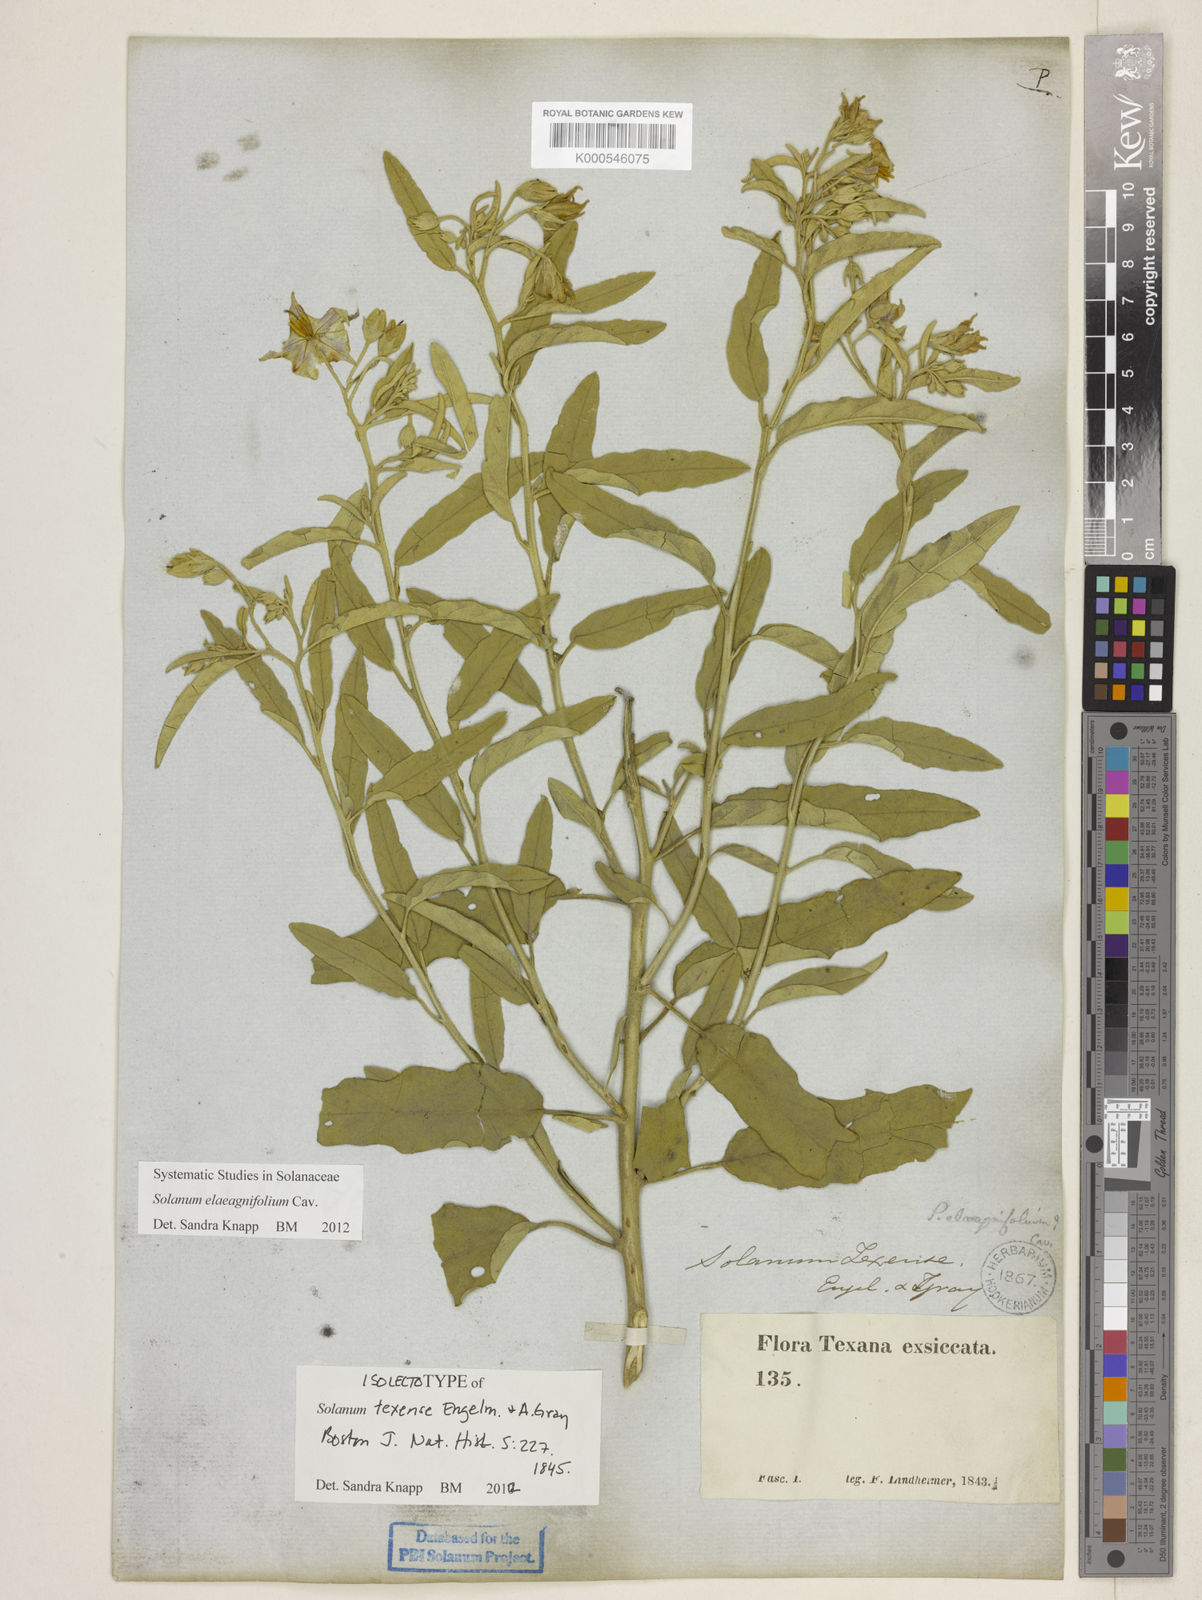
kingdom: Plantae
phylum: Tracheophyta
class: Magnoliopsida
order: Solanales
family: Solanaceae
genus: Solanum
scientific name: Solanum elaeagnifolium
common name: Silverleaf nightshade
